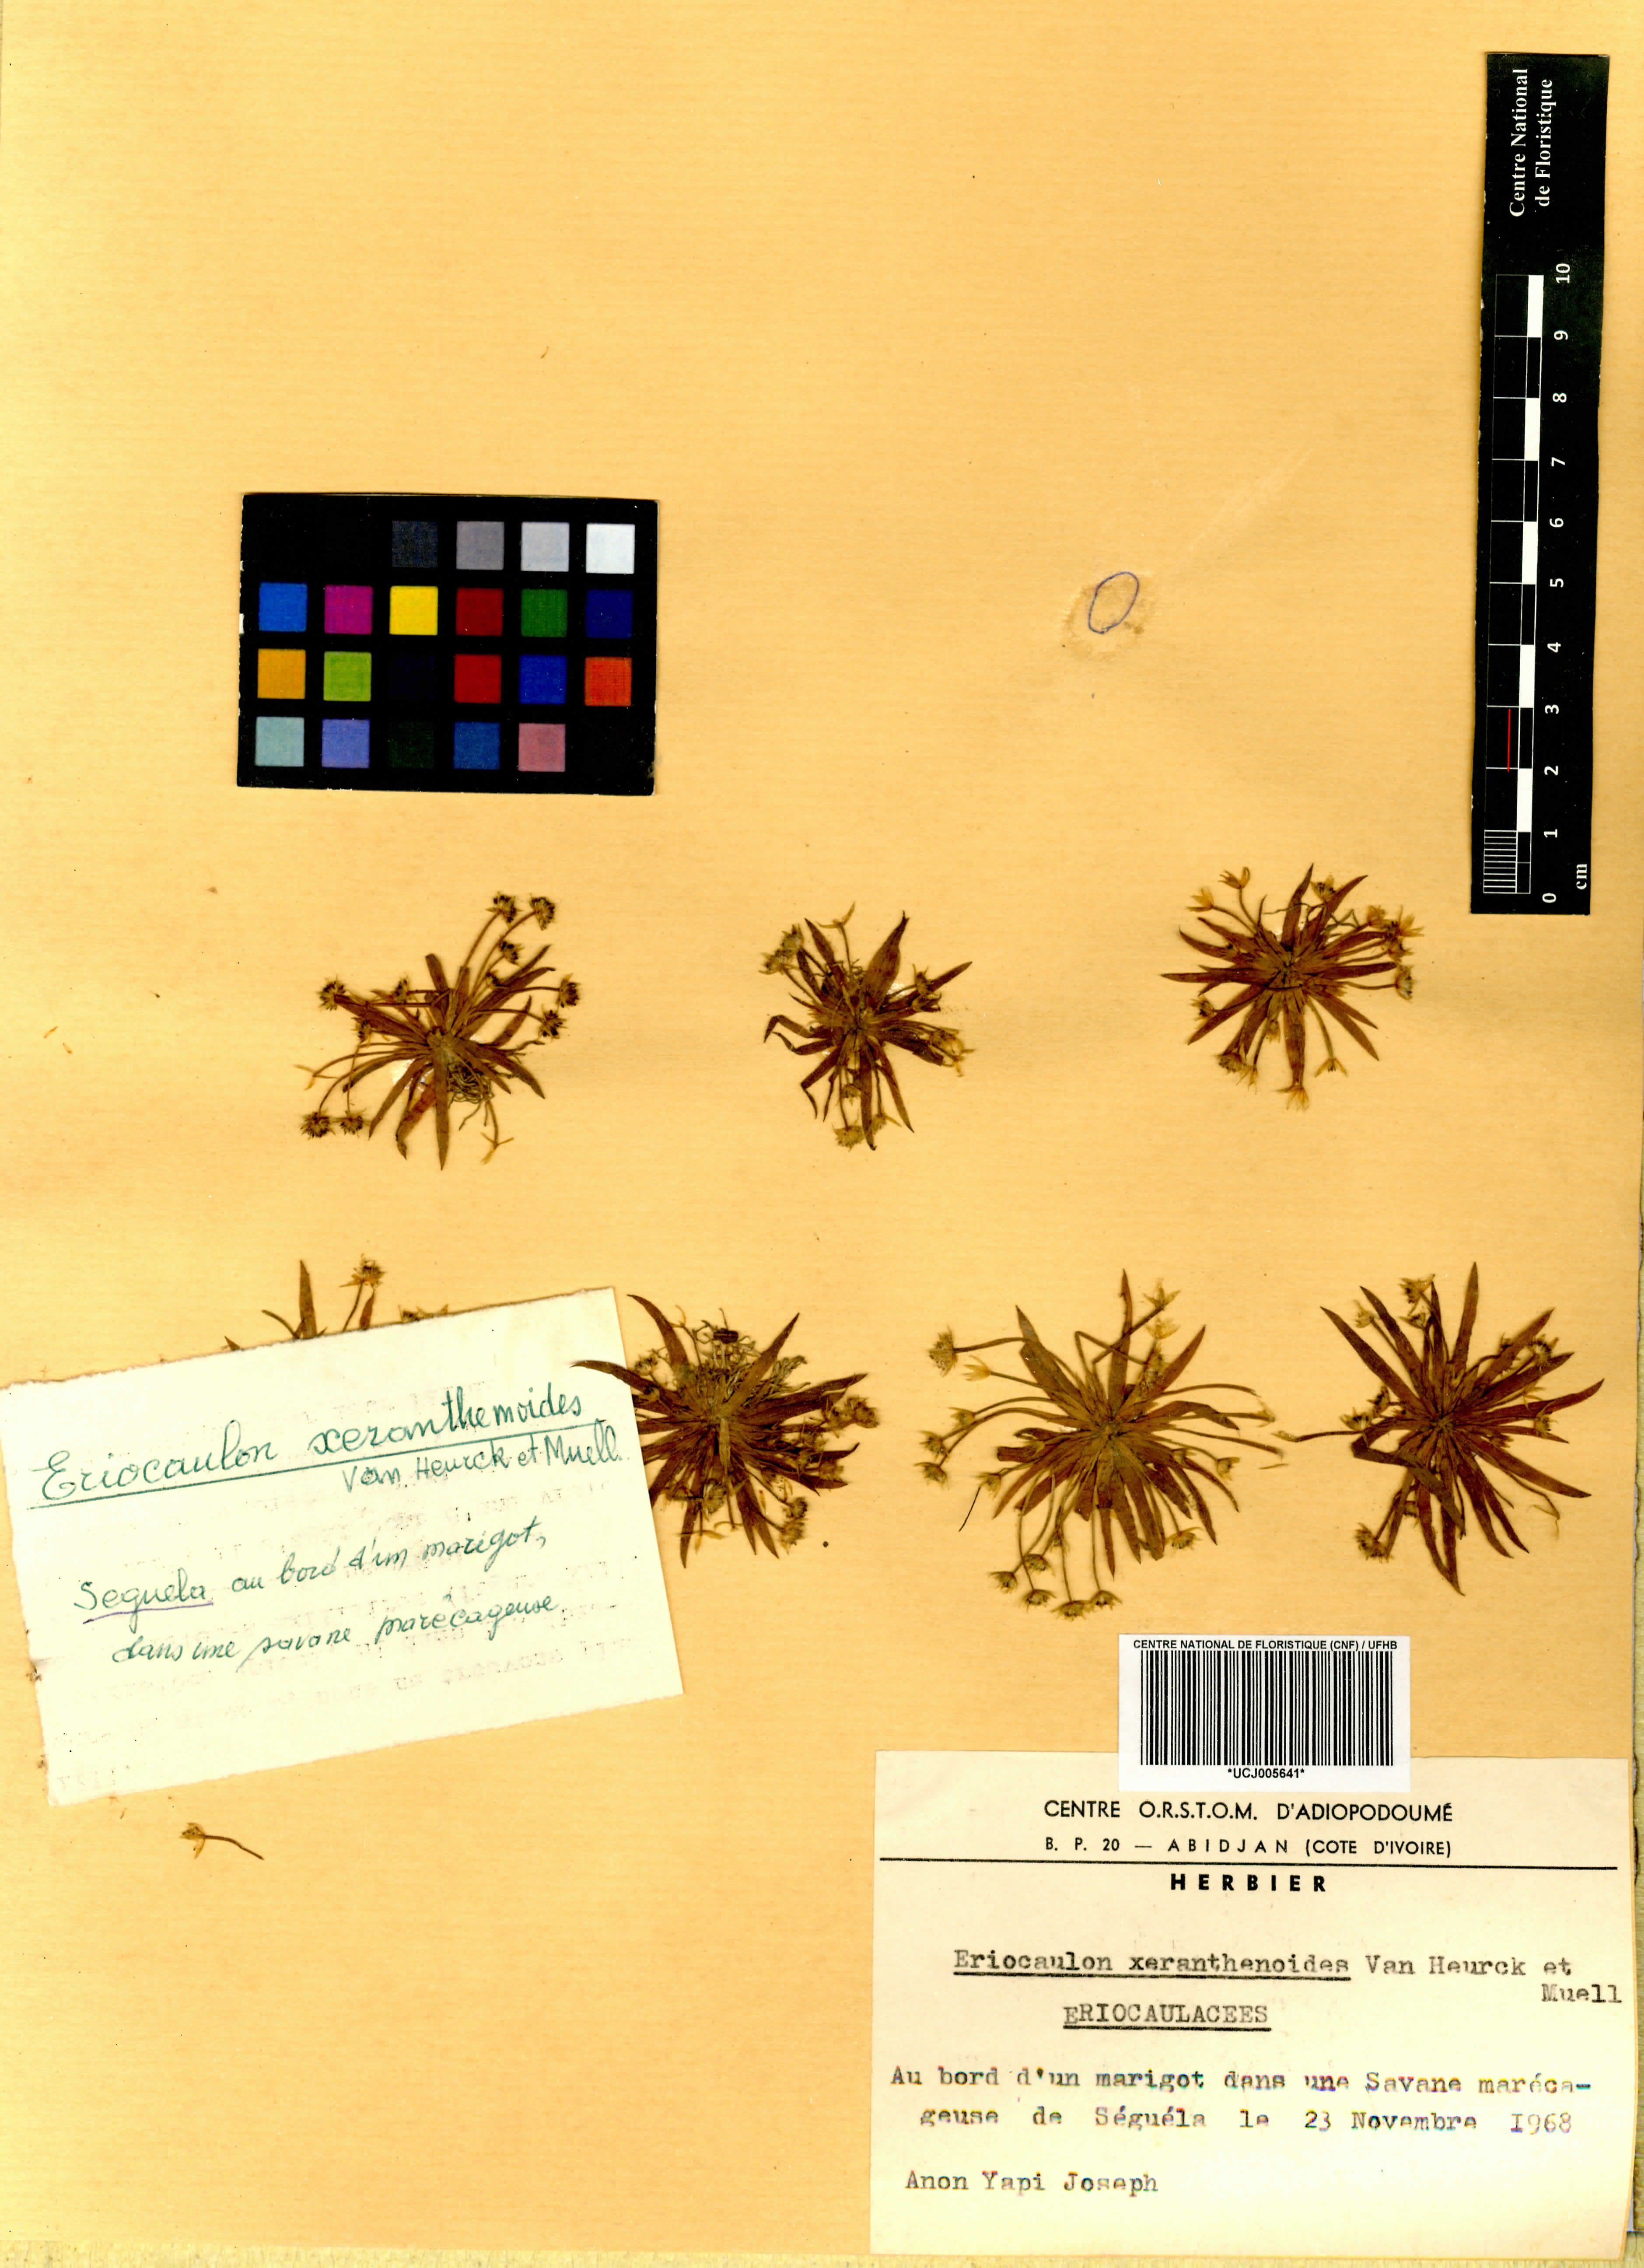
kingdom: Plantae
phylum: Tracheophyta
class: Liliopsida
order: Poales
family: Eriocaulaceae
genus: Eriocaulon
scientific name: Eriocaulon togoense
